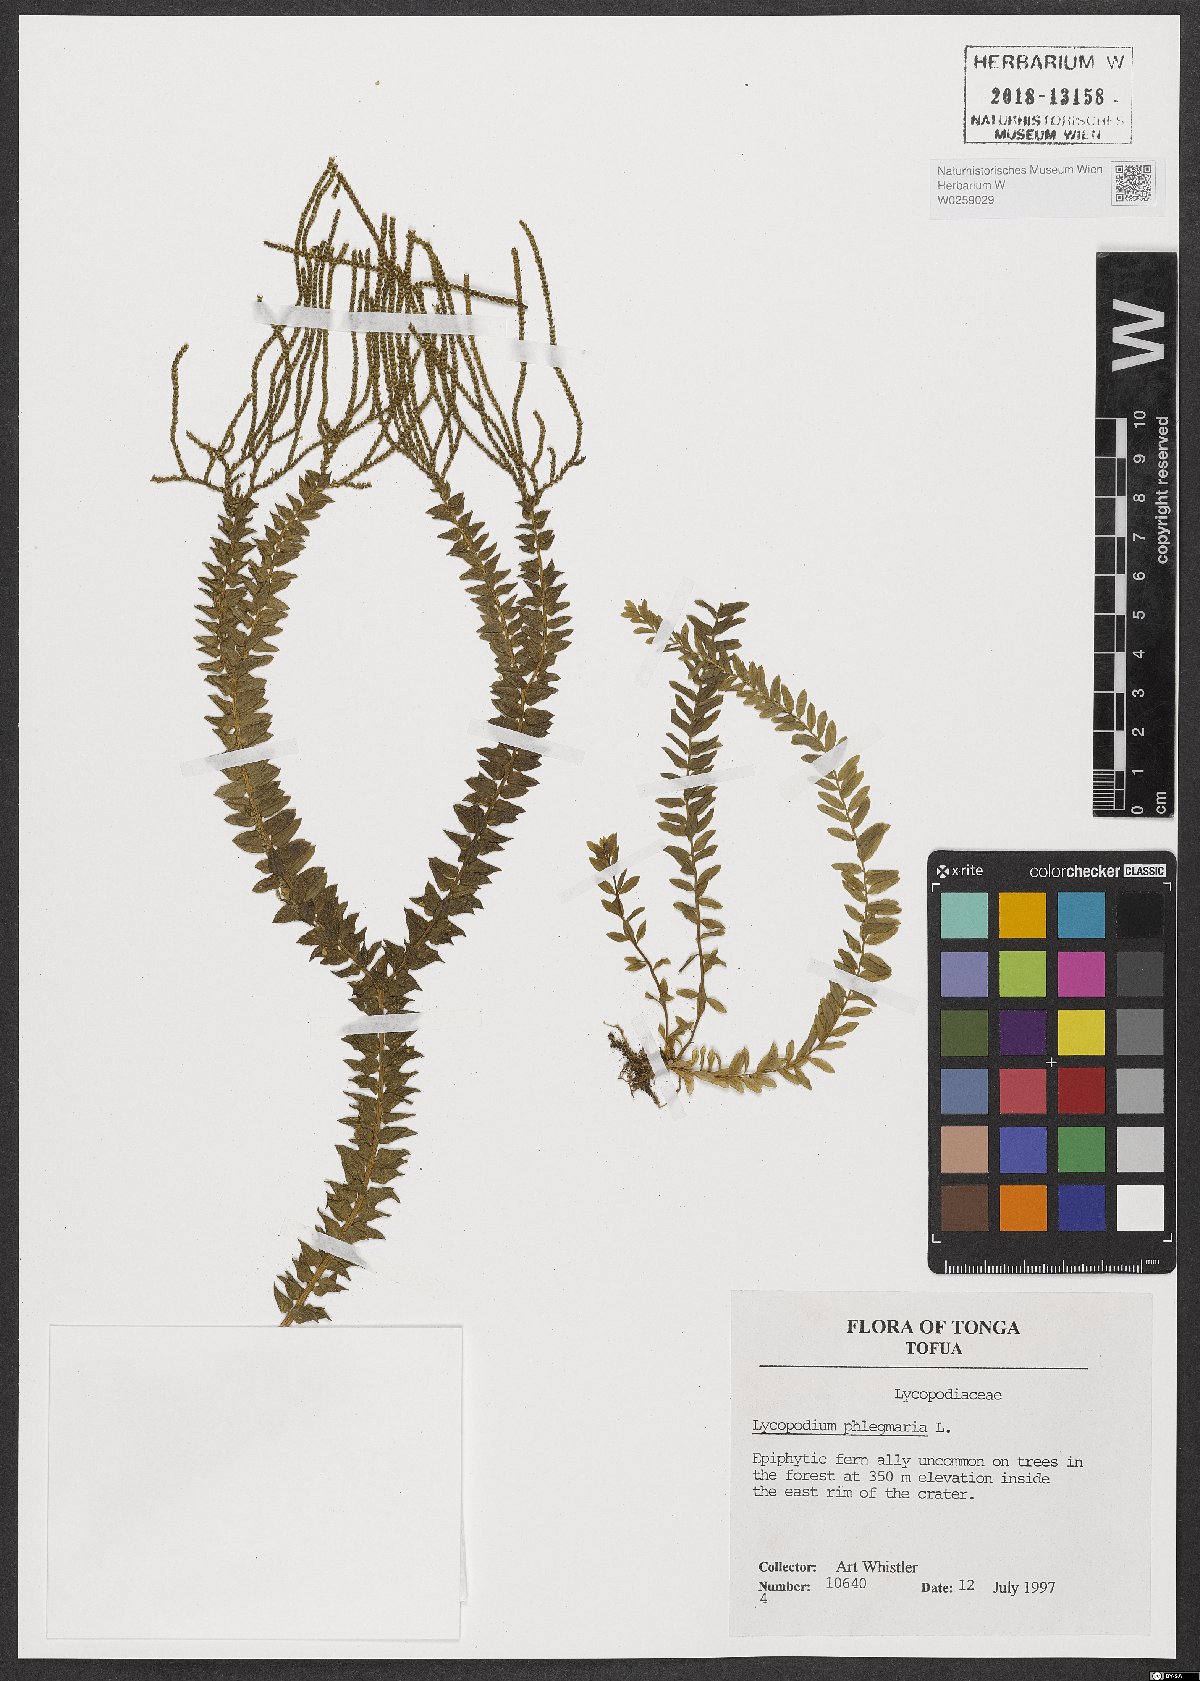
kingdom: Plantae
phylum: Tracheophyta
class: Lycopodiopsida
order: Lycopodiales
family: Lycopodiaceae
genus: Phlegmariurus
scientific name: Phlegmariurus phlegmaria
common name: Coarse tassel-fern
